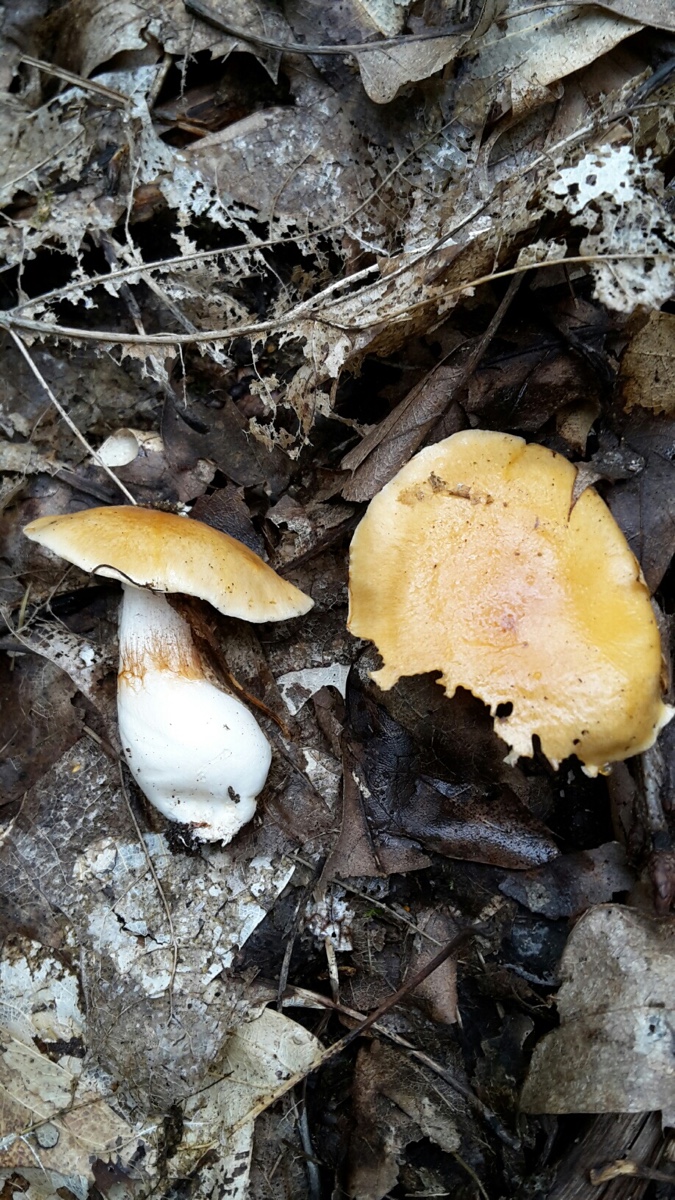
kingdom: Fungi
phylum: Basidiomycota
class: Agaricomycetes
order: Agaricales
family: Cortinariaceae
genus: Thaxterogaster
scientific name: Thaxterogaster emollitus
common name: besk slørhat
